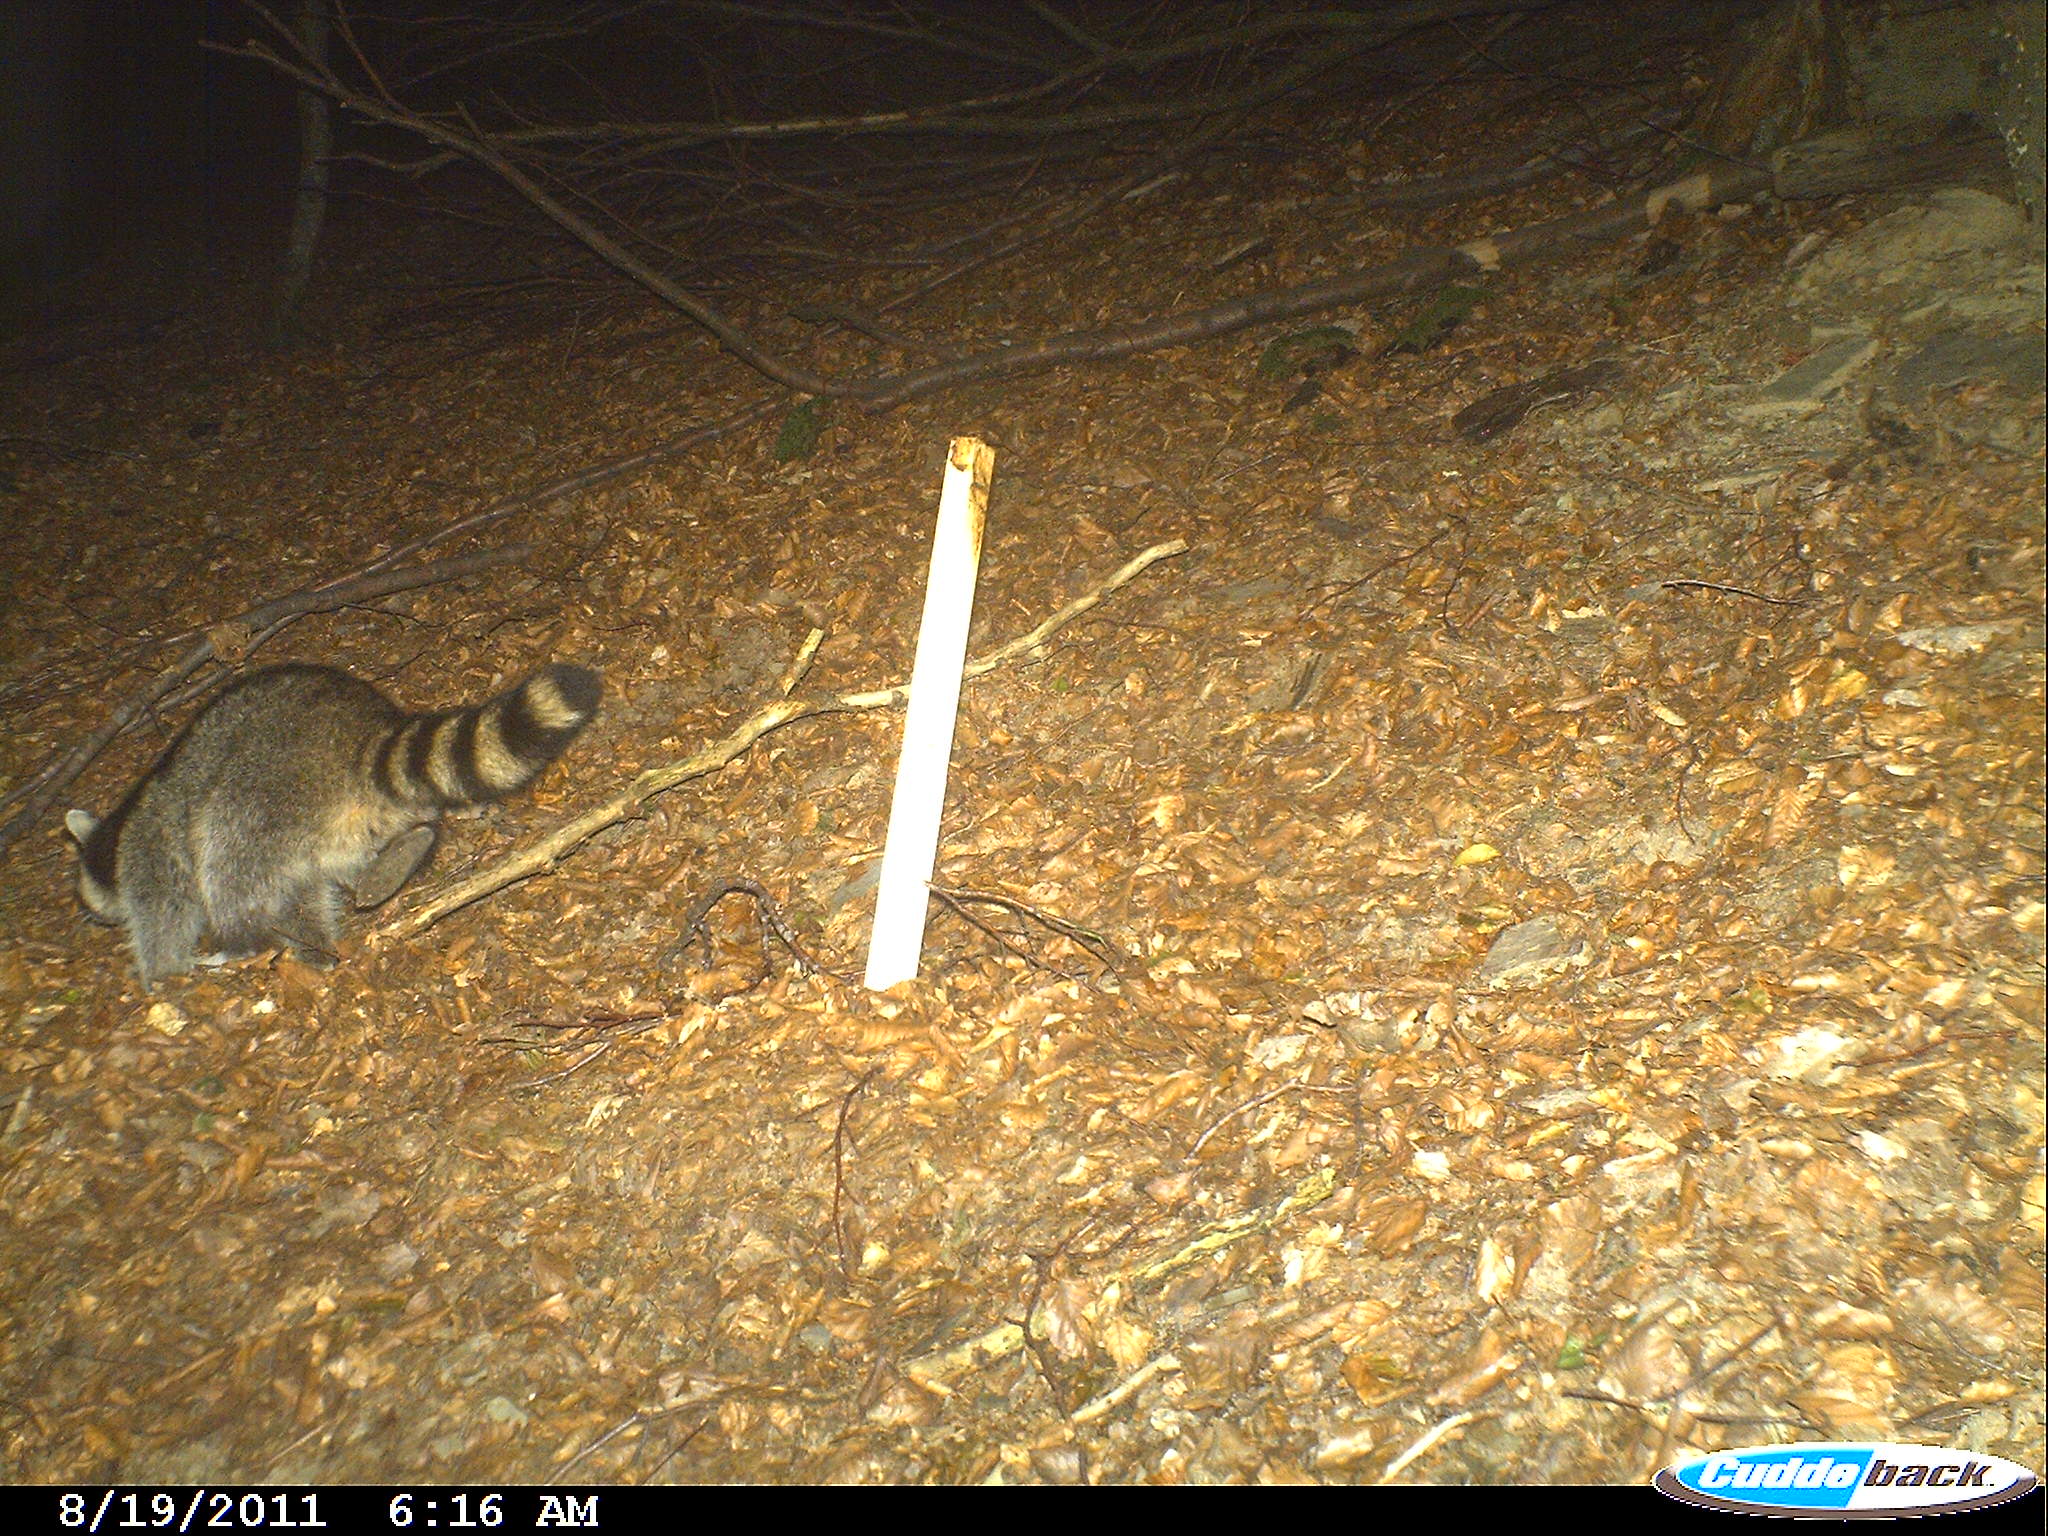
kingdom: Animalia
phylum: Chordata
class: Mammalia
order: Carnivora
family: Procyonidae
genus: Procyon
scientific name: Procyon lotor
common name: Raccoon
